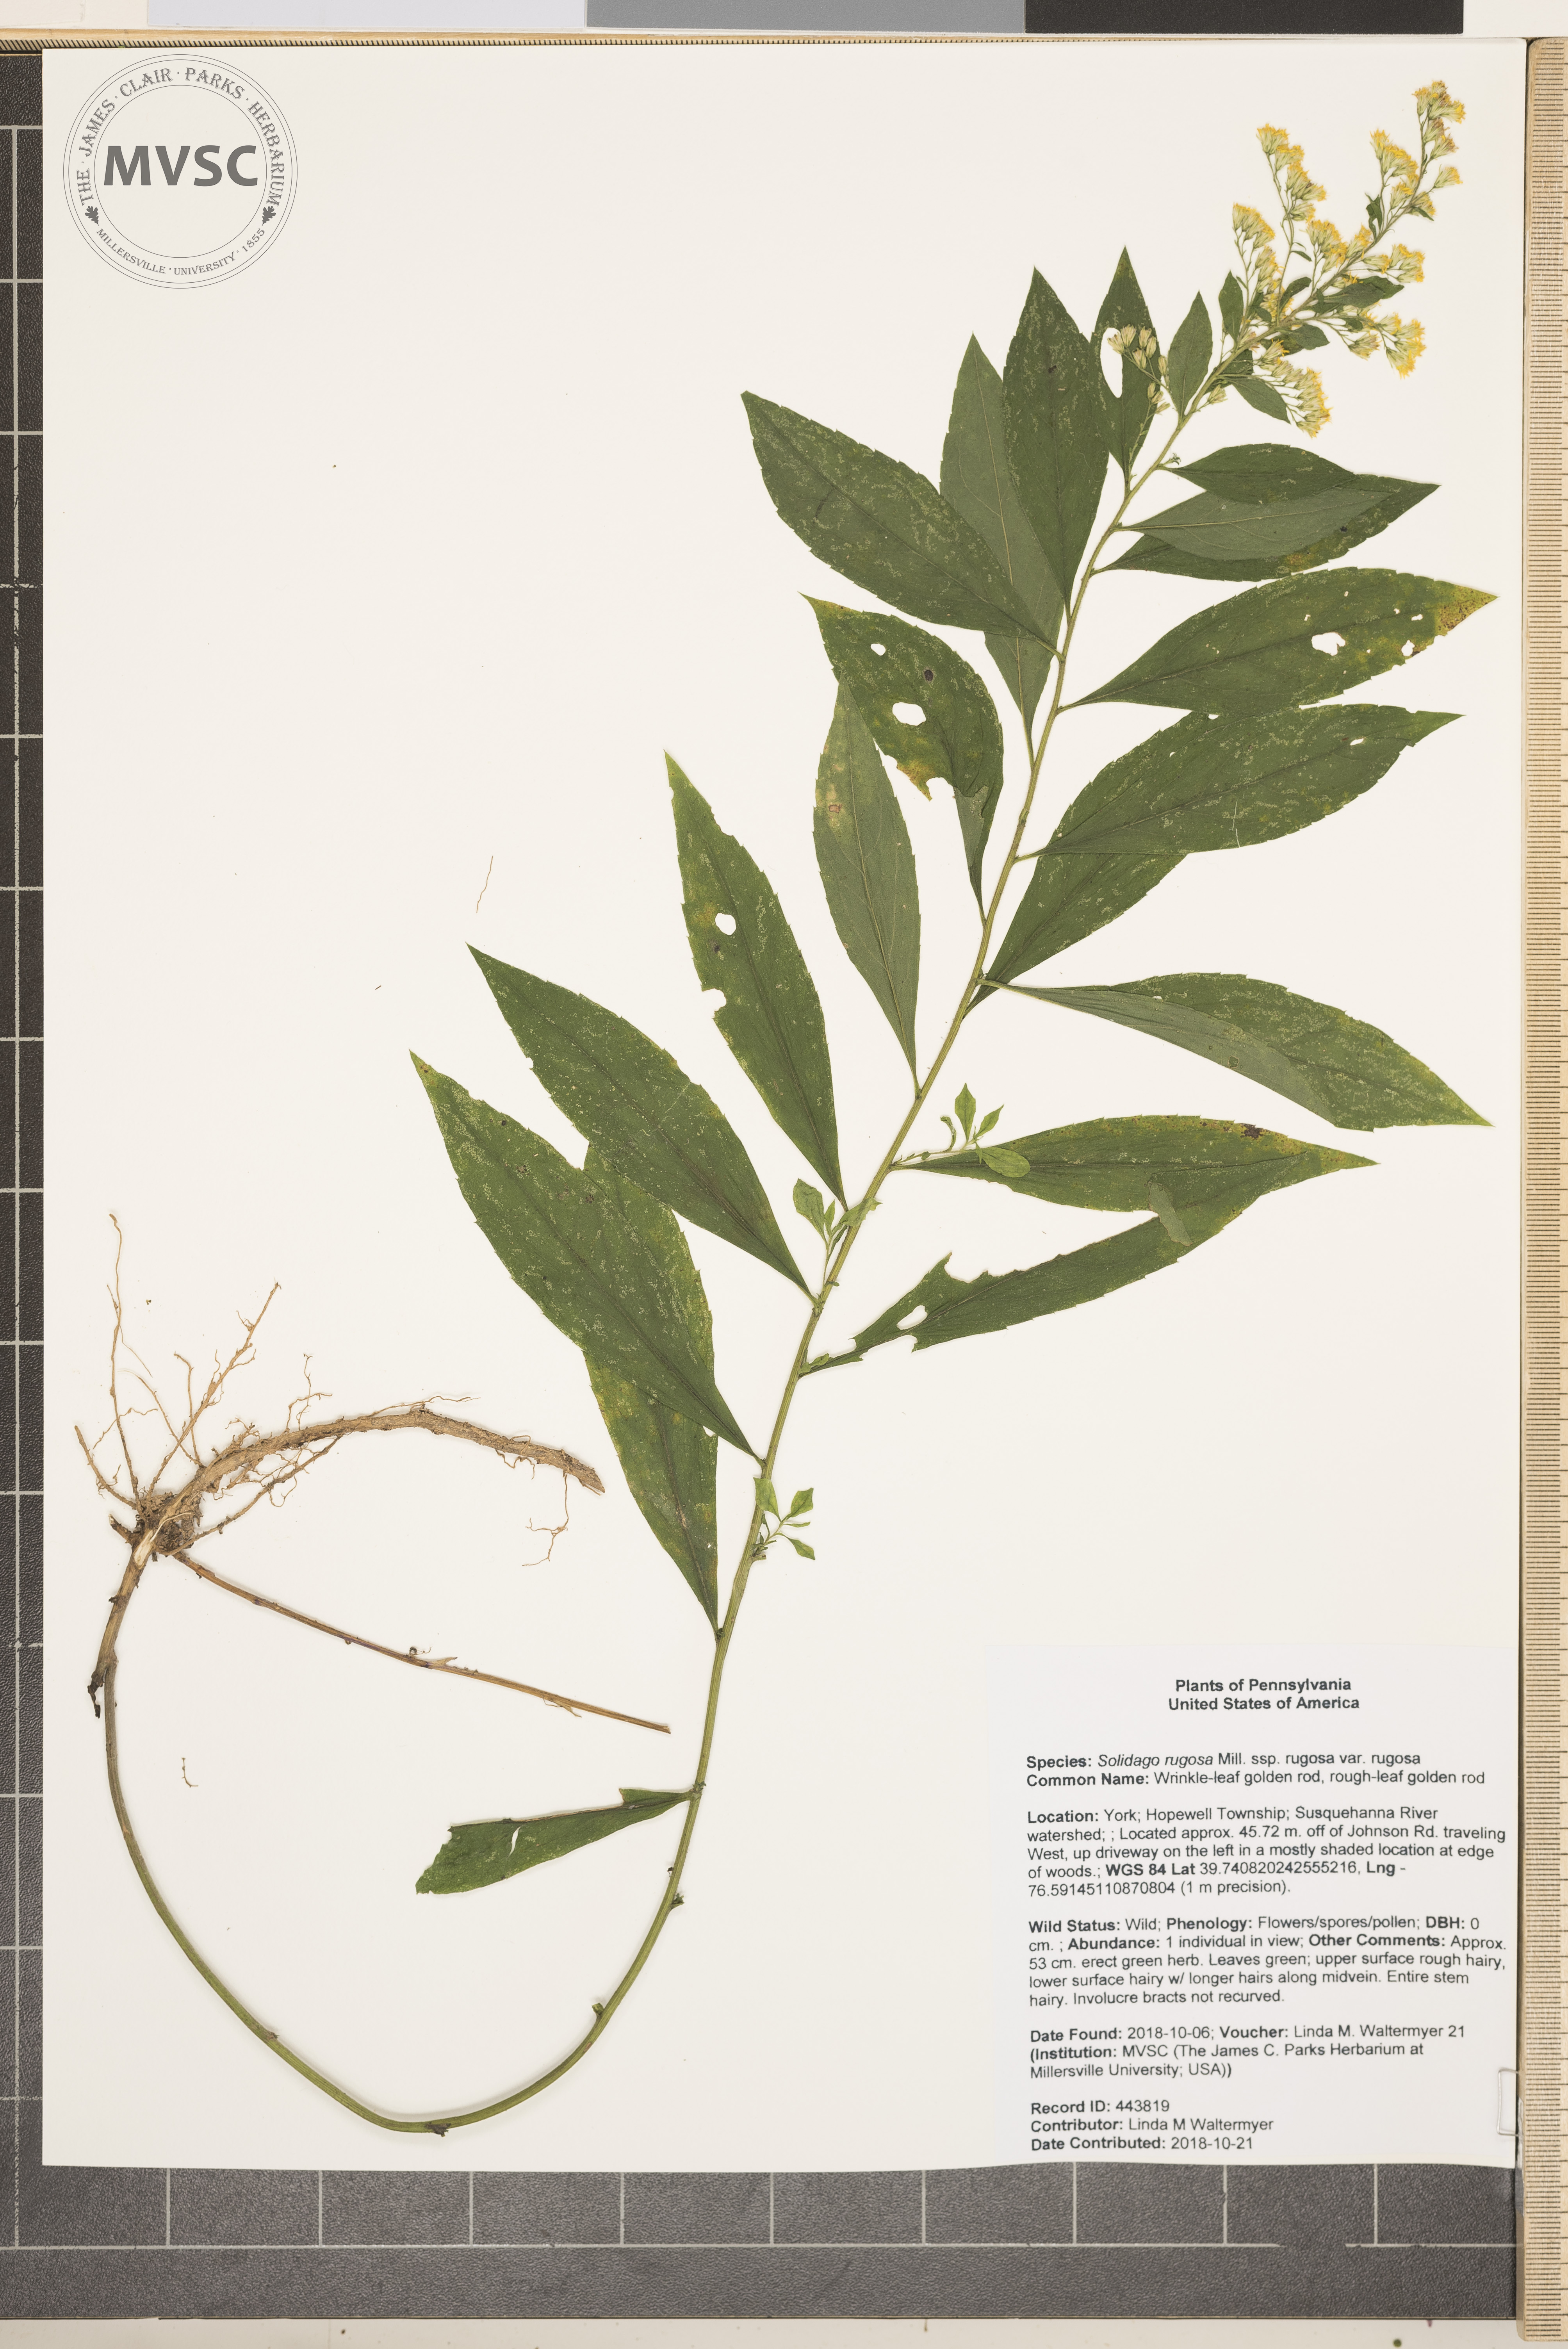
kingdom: Plantae
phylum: Tracheophyta
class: Magnoliopsida
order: Asterales
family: Asteraceae
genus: Solidago
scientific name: Solidago rugosa
